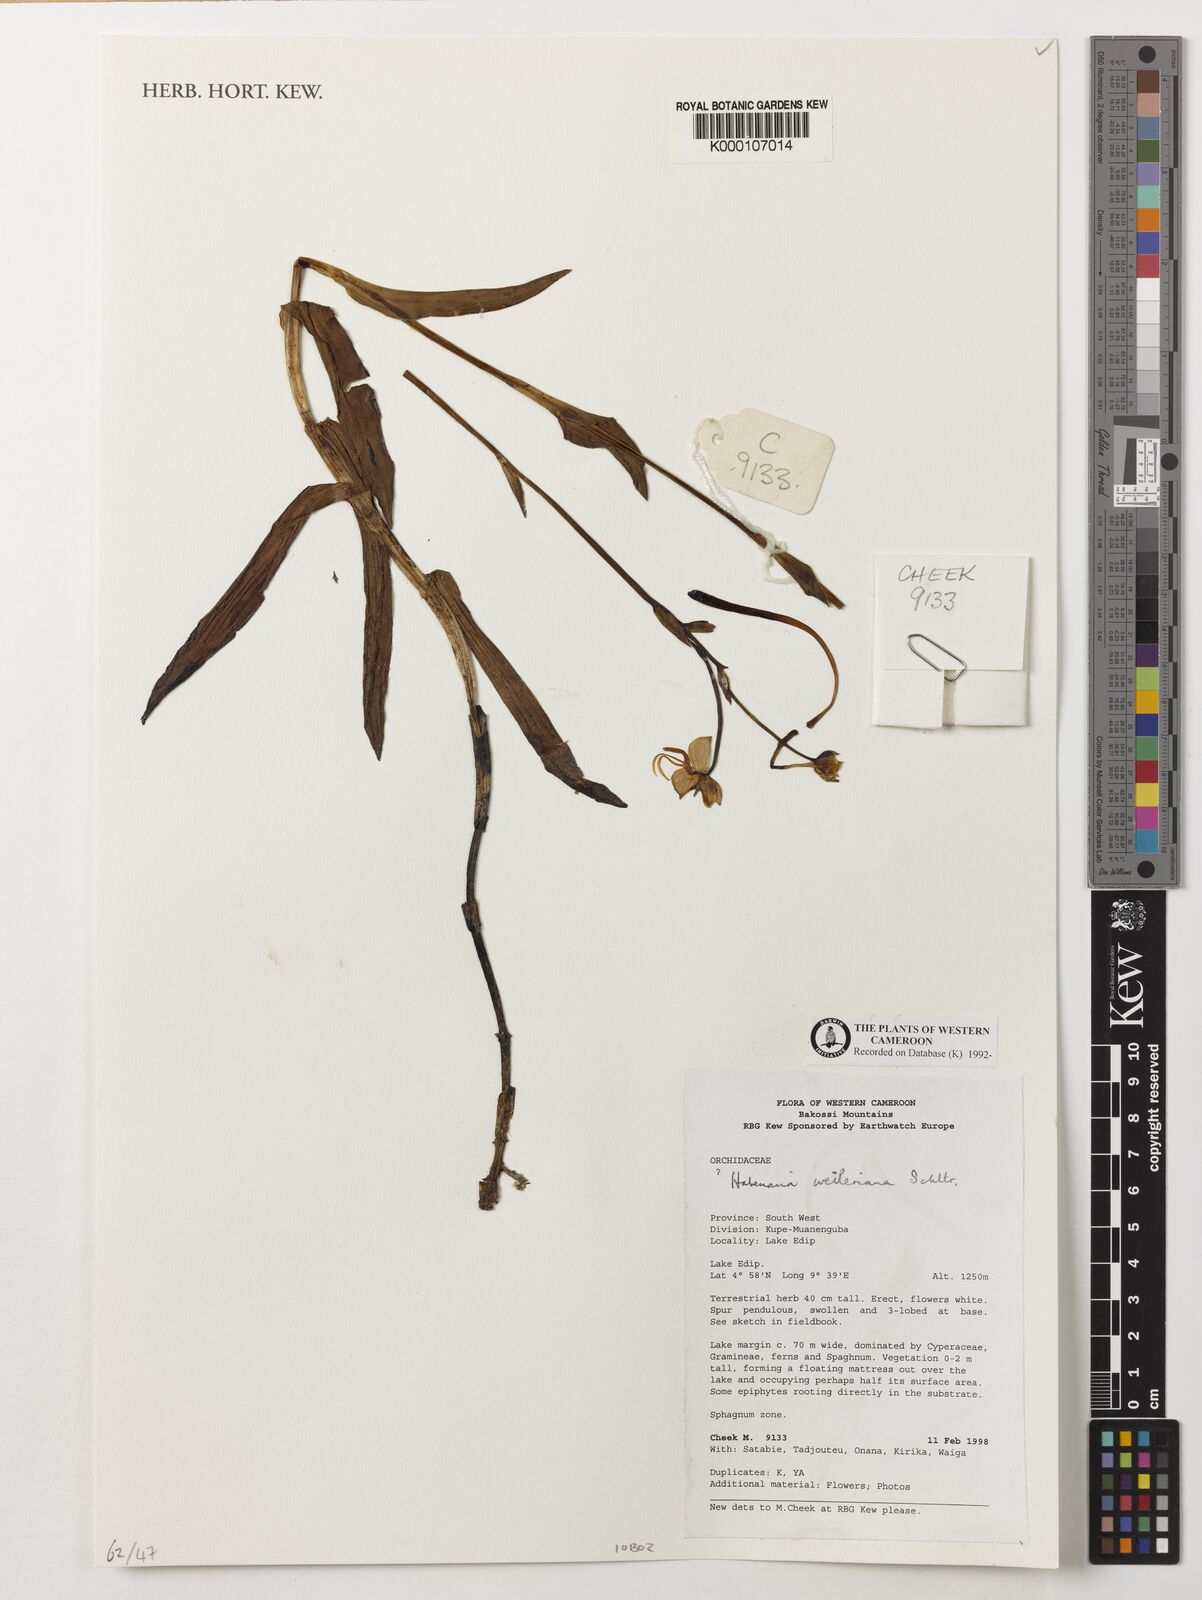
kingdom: Plantae
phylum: Tracheophyta
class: Liliopsida
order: Asparagales
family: Orchidaceae
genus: Habenaria
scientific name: Habenaria weileriana
